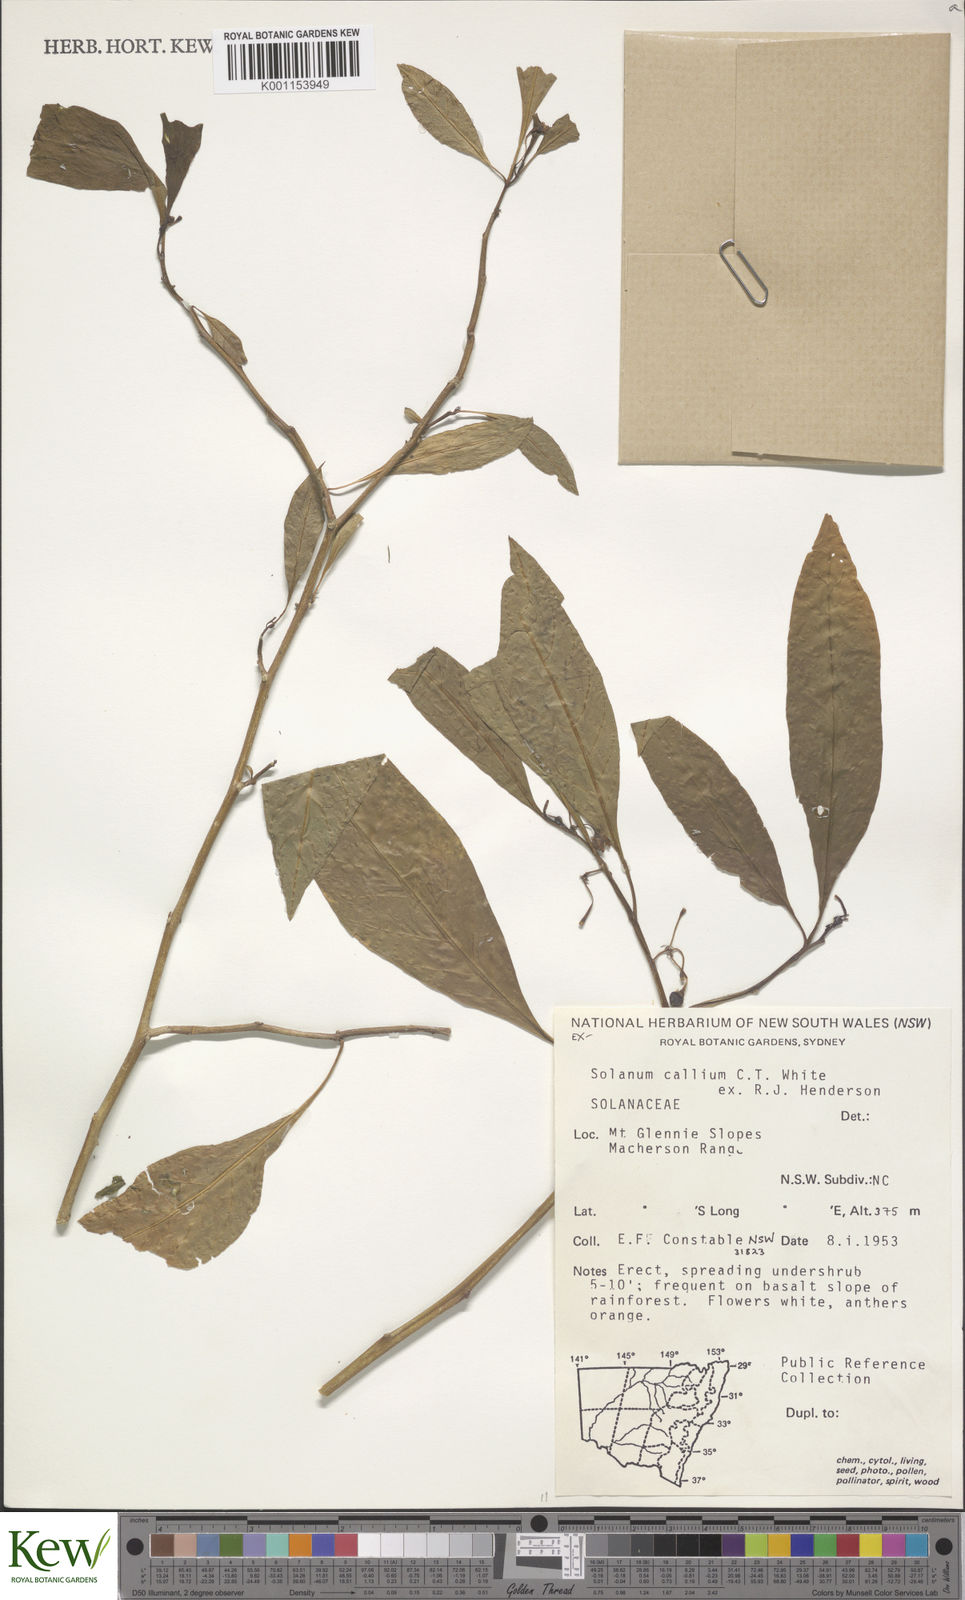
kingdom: Plantae
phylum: Tracheophyta
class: Magnoliopsida
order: Solanales
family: Solanaceae
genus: Solanum
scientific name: Solanum spirale
